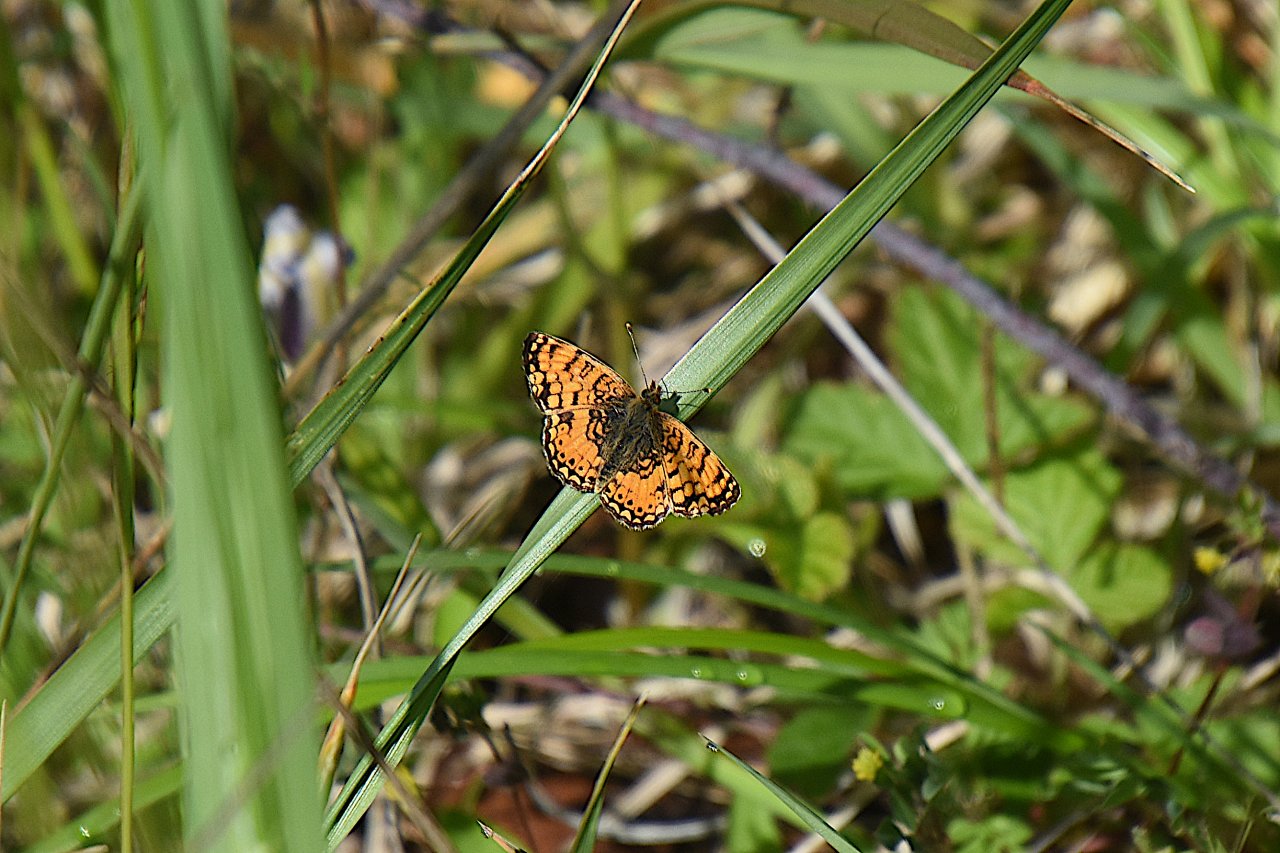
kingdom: Animalia
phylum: Arthropoda
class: Insecta
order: Lepidoptera
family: Nymphalidae
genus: Eresia
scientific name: Eresia aveyrona
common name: Mylitta Crescent
